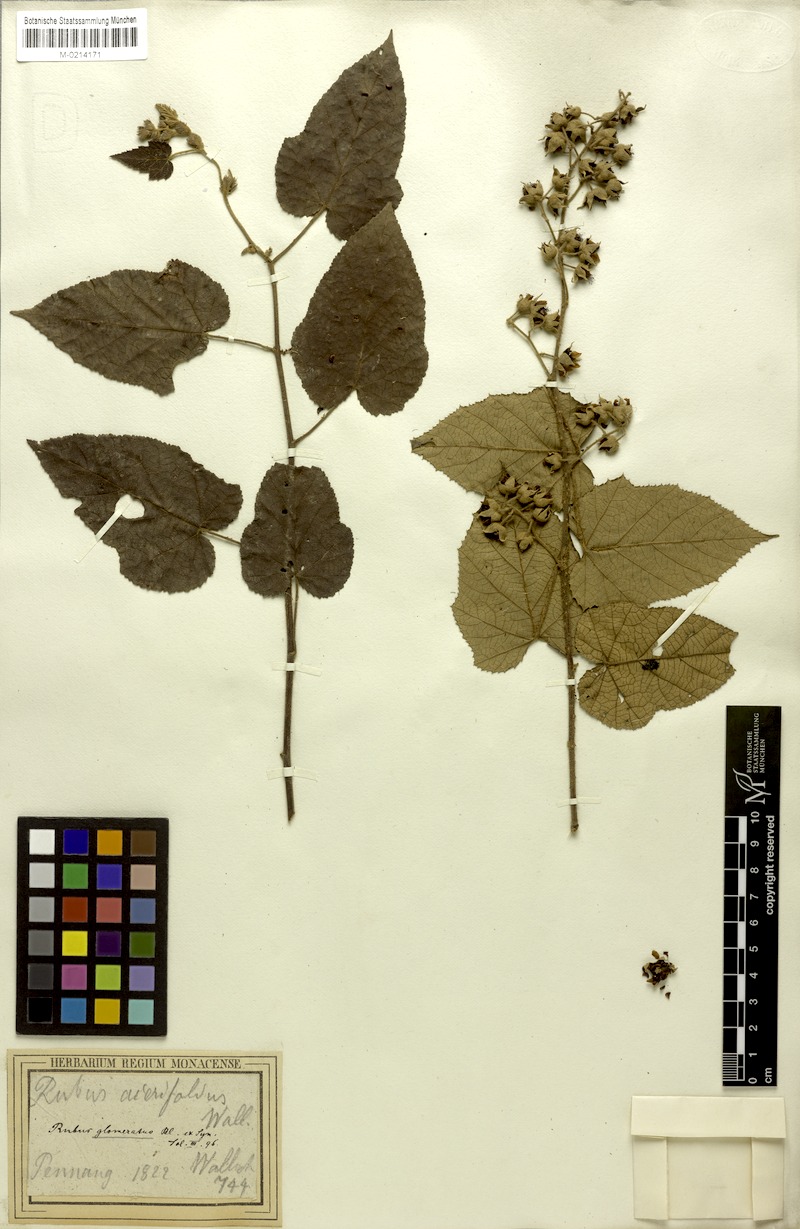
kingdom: Plantae
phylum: Tracheophyta
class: Magnoliopsida
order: Rosales
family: Rosaceae
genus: Rubus
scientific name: Rubus glomeratus
